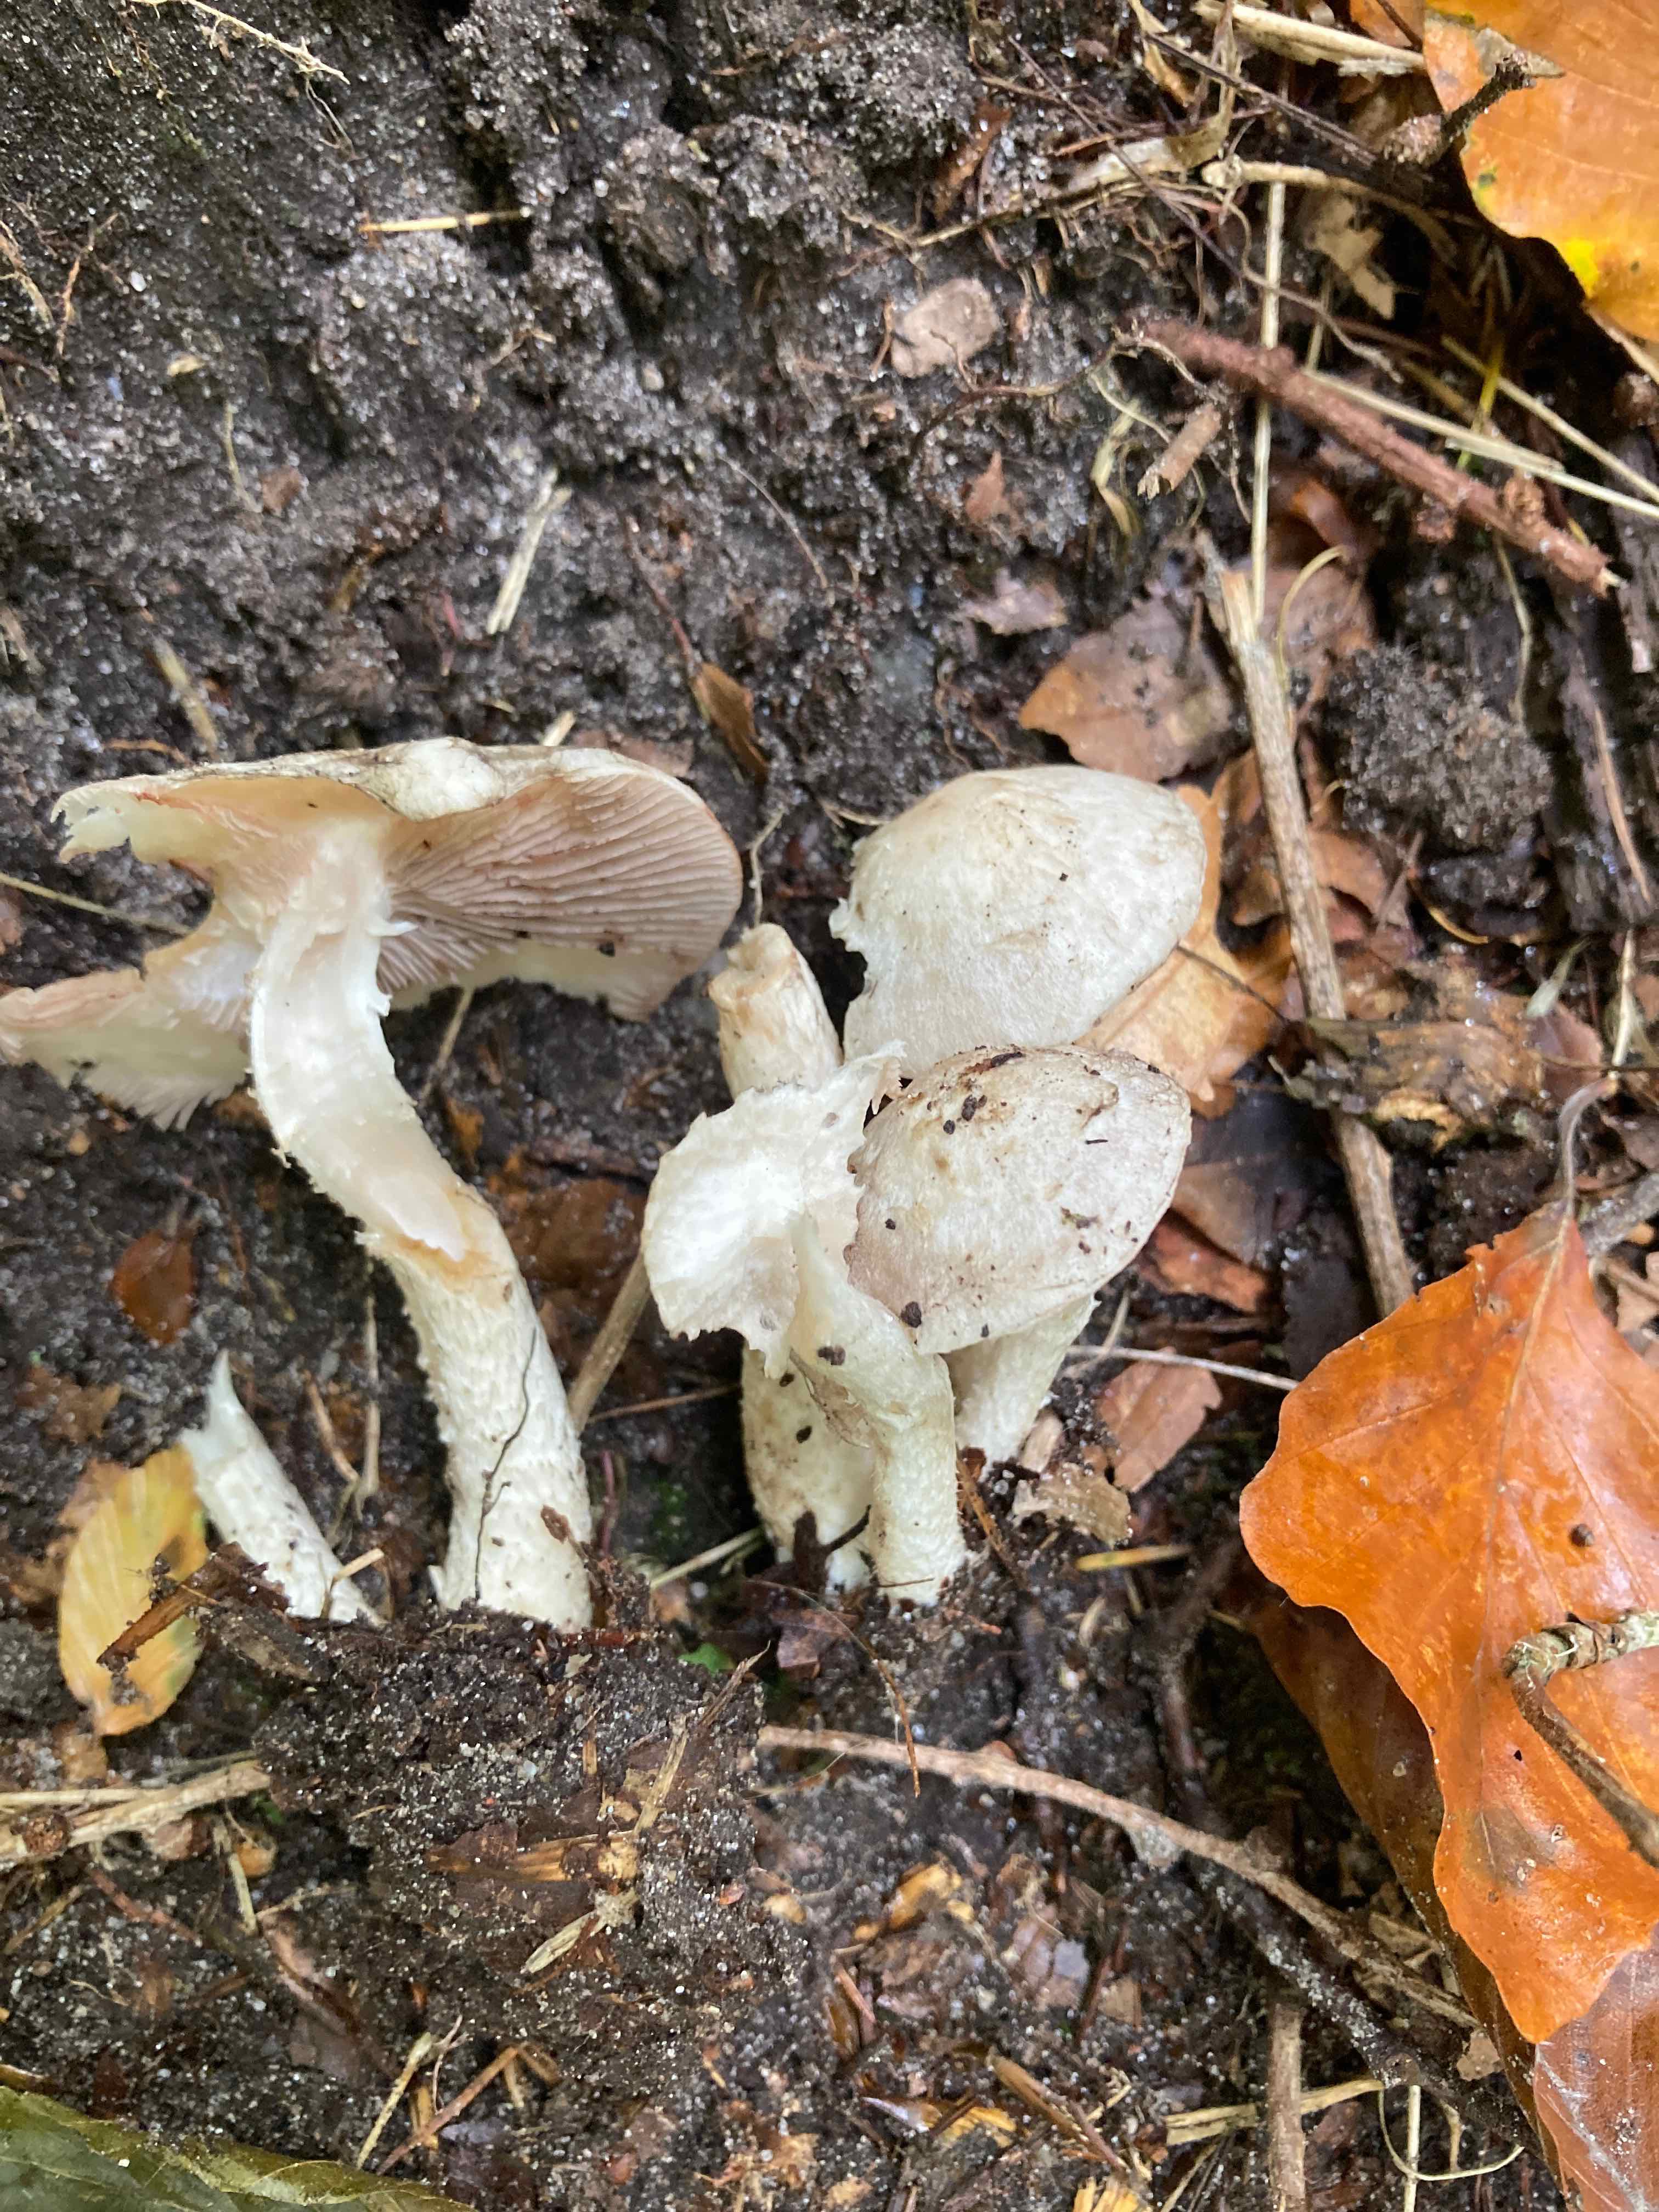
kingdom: Fungi
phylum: Basidiomycota
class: Agaricomycetes
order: Agaricales
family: Psathyrellaceae
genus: Psathyrella
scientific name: Psathyrella cotonea
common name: skællet mørkhat
